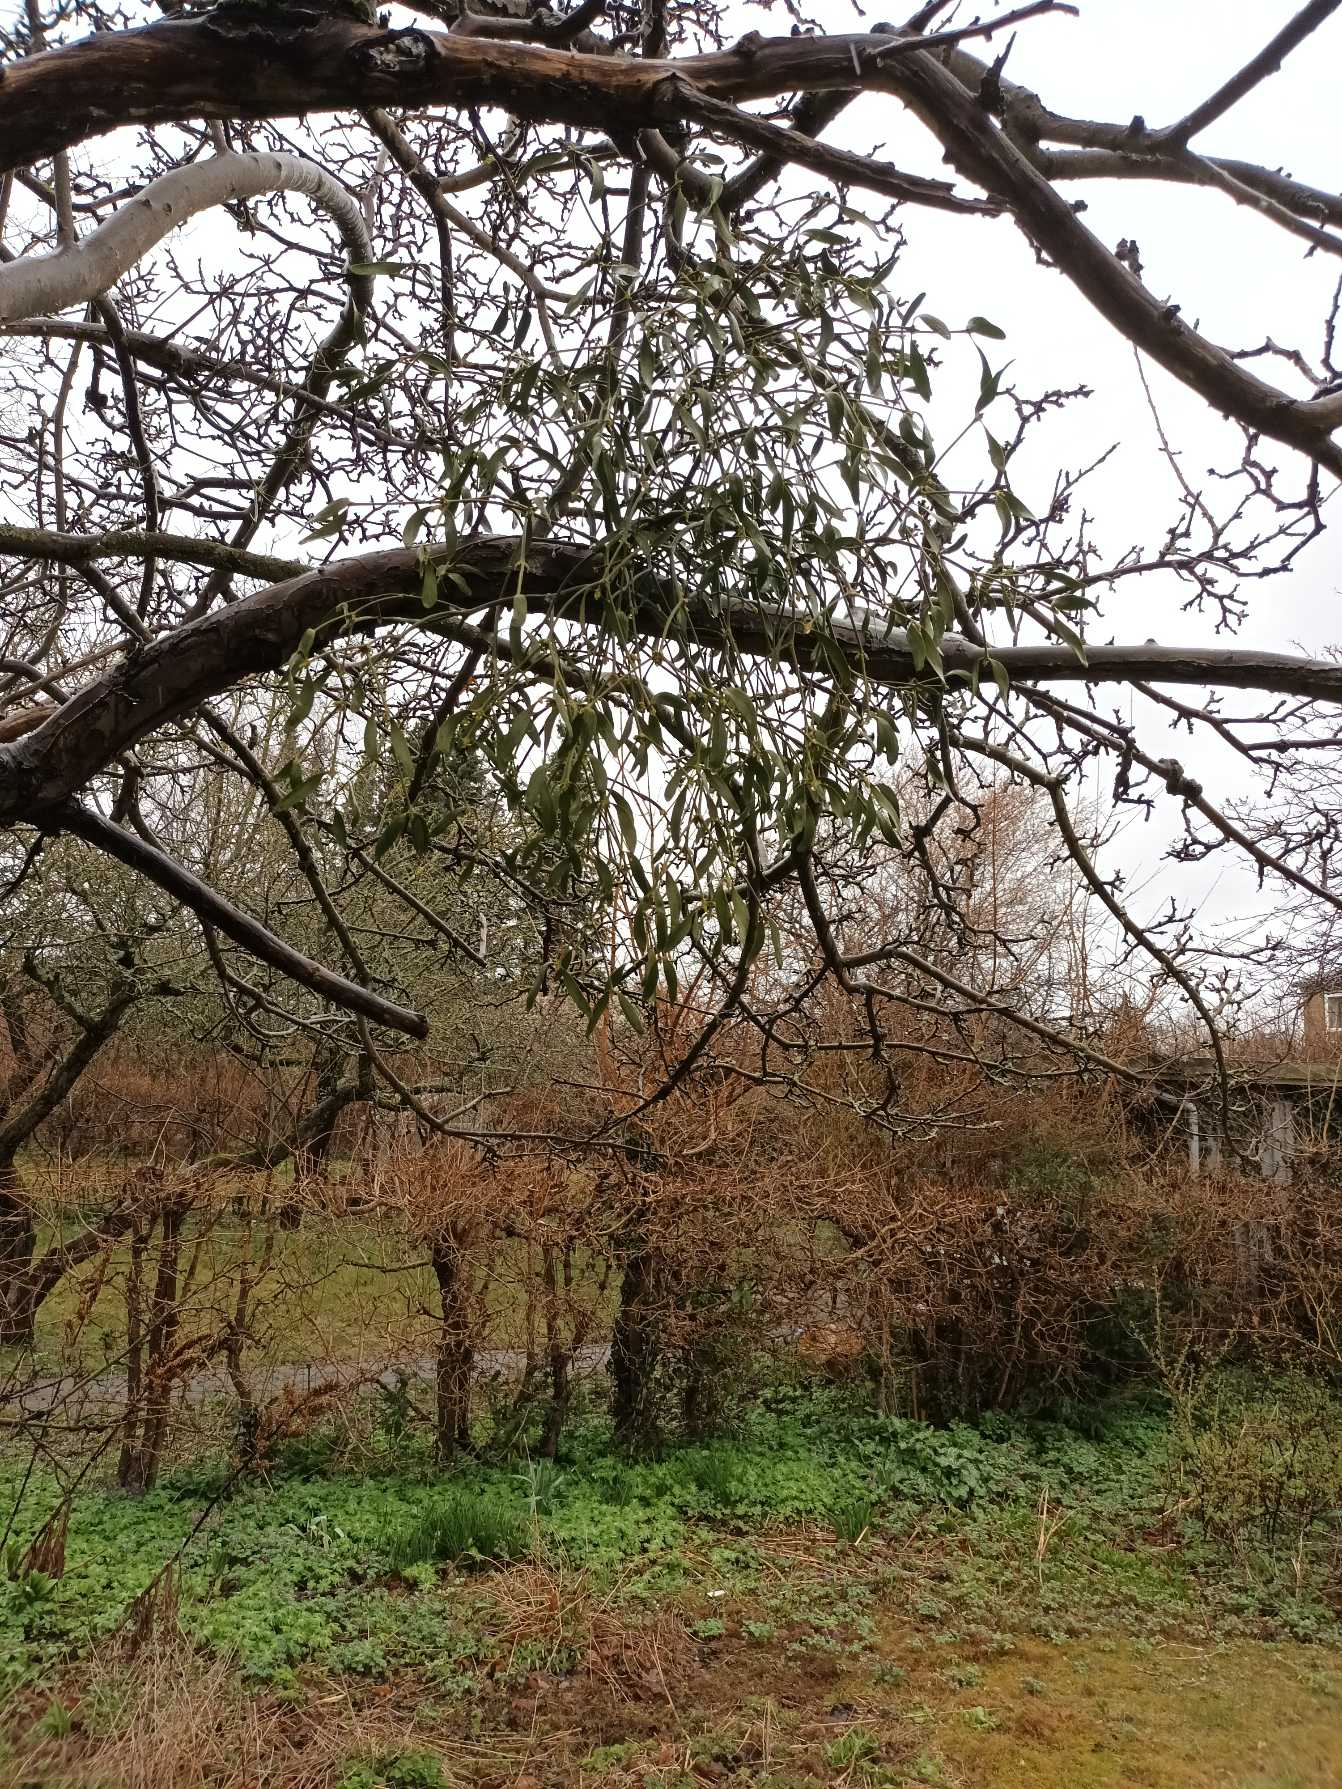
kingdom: Plantae
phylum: Tracheophyta
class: Magnoliopsida
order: Santalales
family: Viscaceae
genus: Viscum
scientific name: Viscum album
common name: Mistelten
